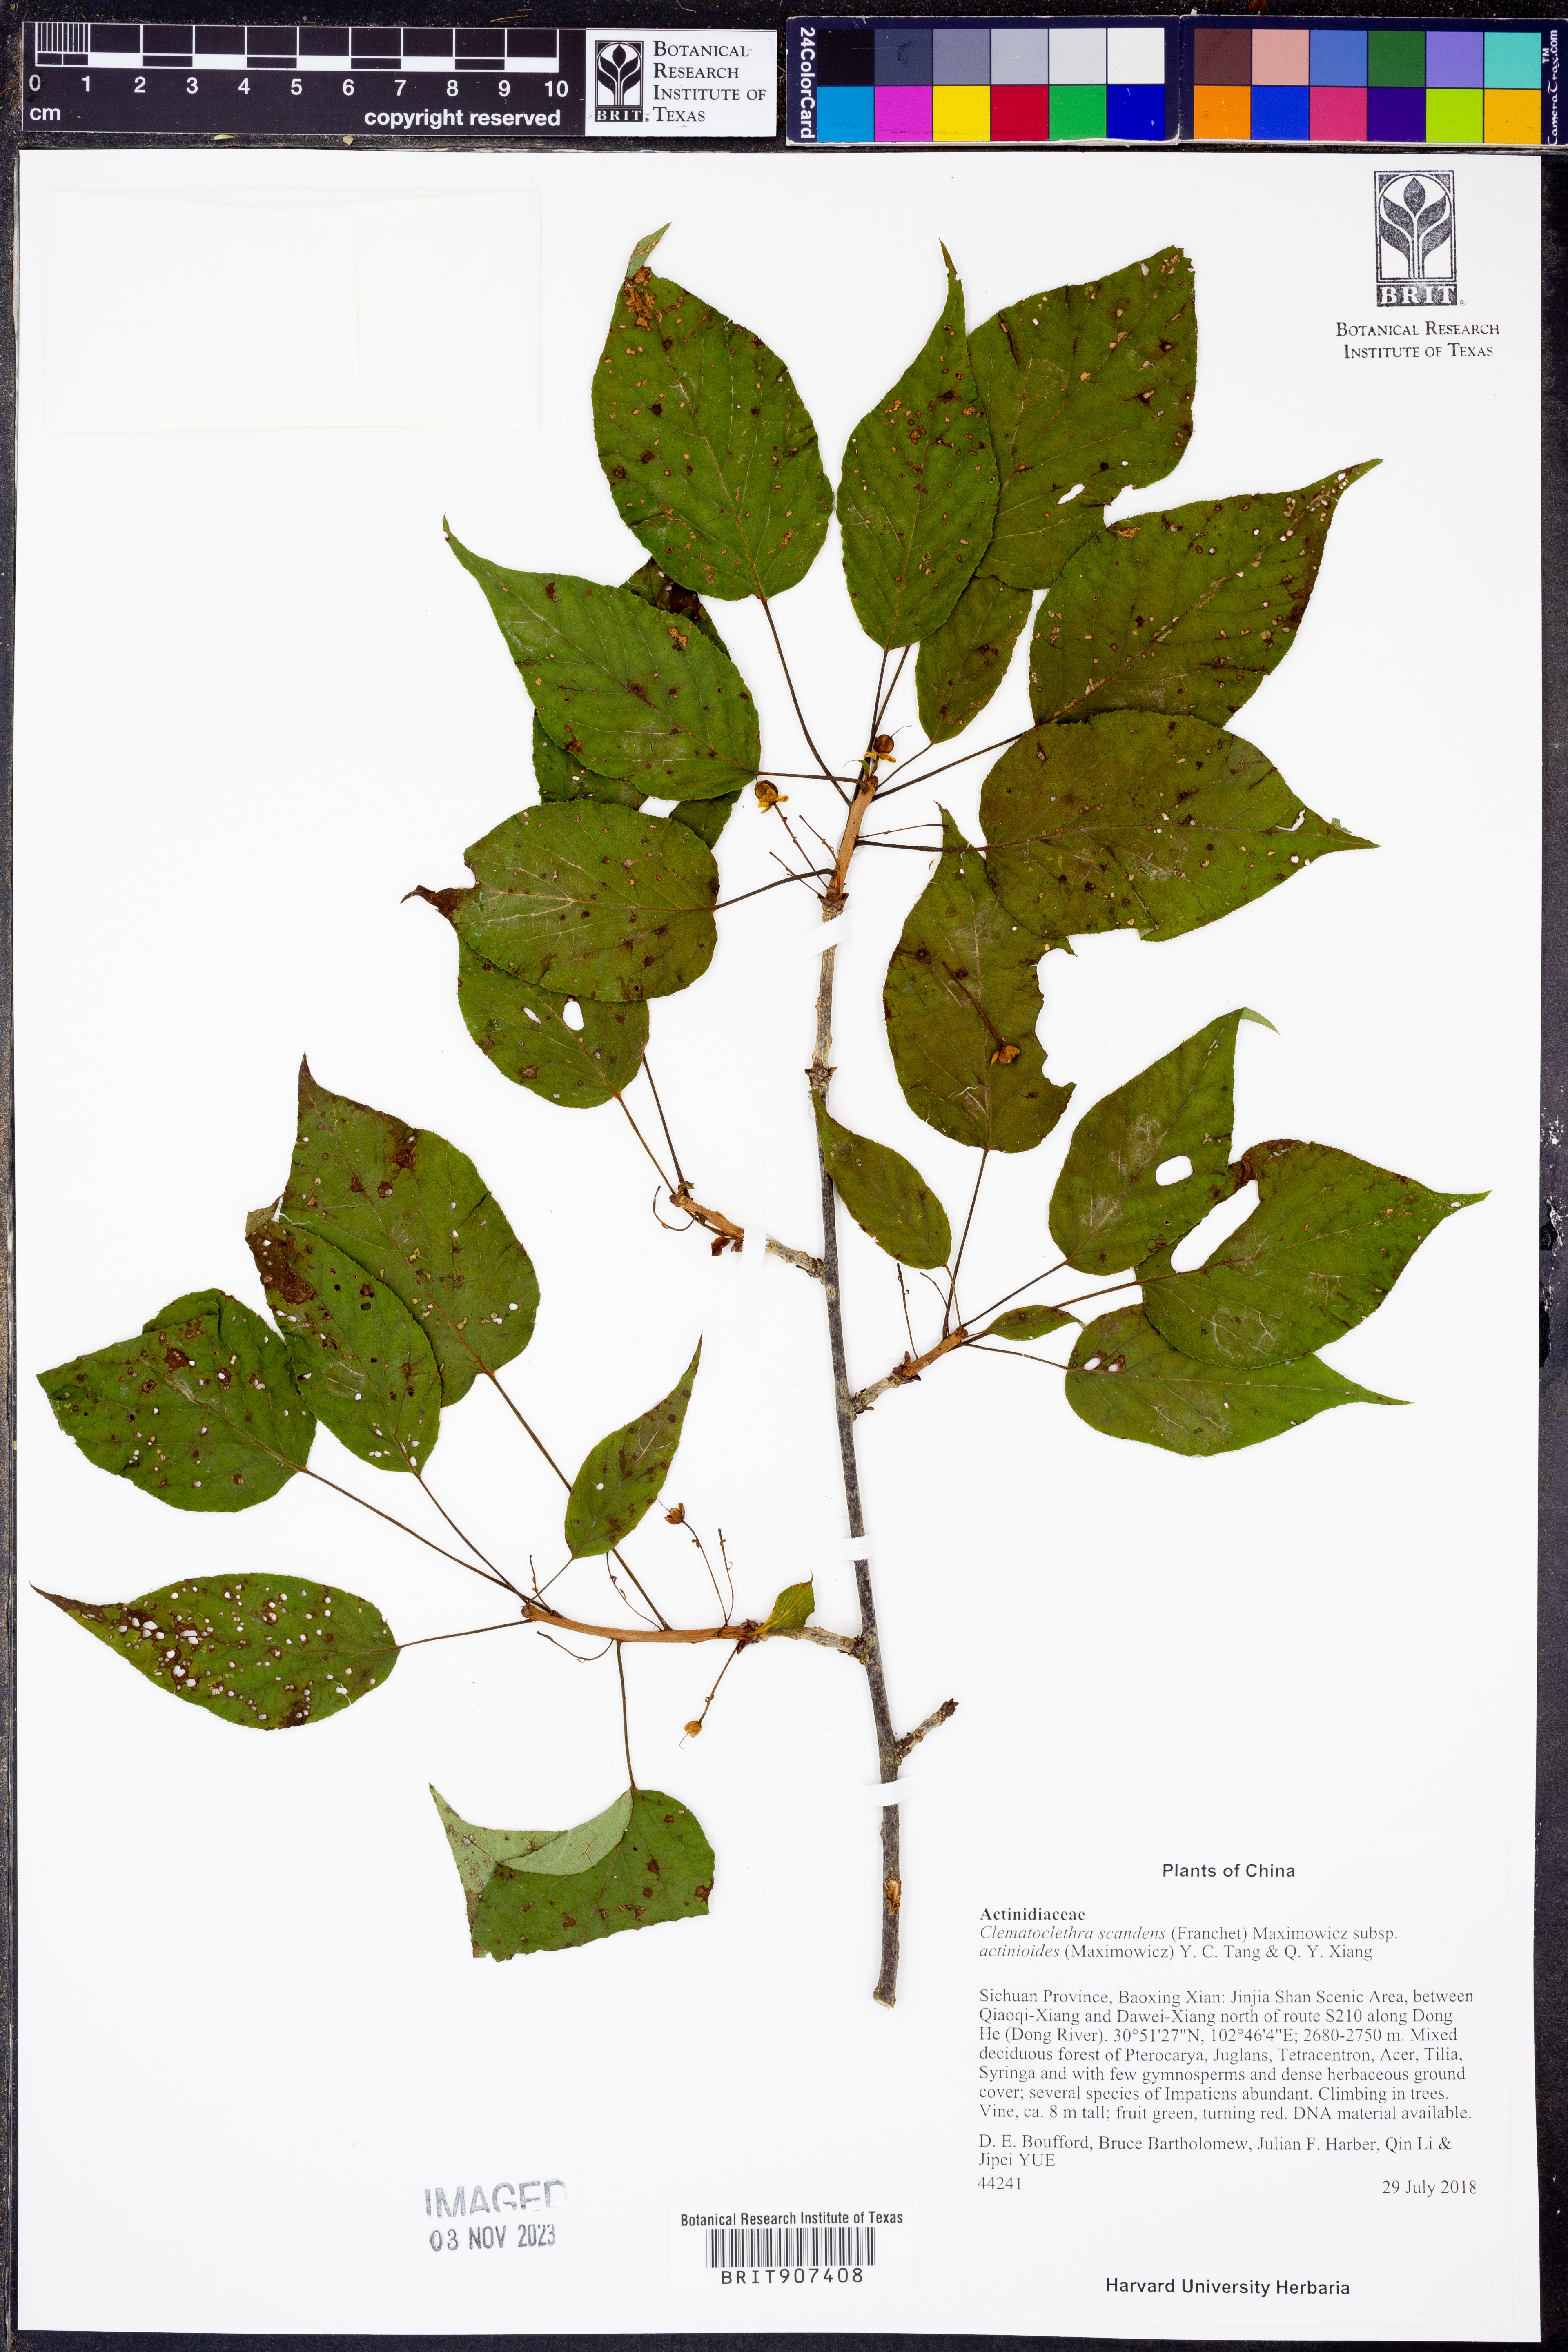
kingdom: Plantae
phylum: Tracheophyta
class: Magnoliopsida
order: Ericales
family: Actinidiaceae
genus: Clematoclethra
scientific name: Clematoclethra scandens
